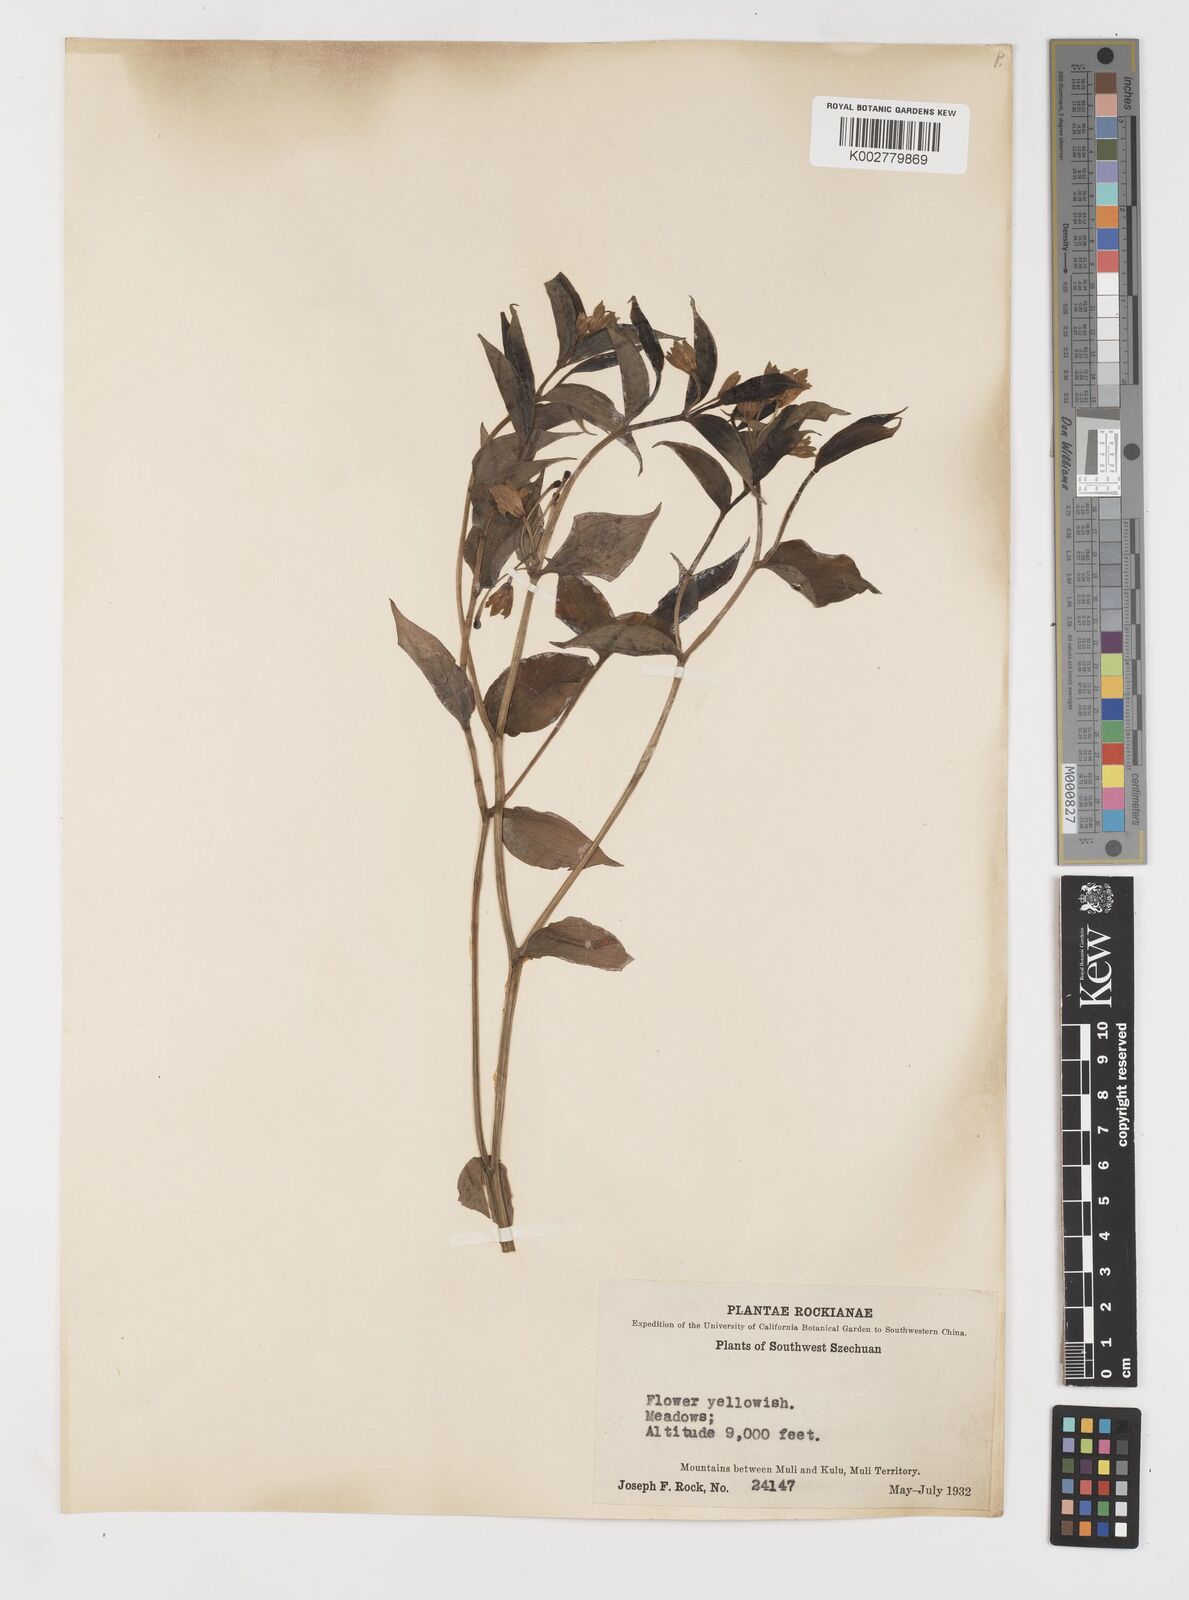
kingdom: Plantae
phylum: Tracheophyta
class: Liliopsida
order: Liliales
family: Colchicaceae
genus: Disporum
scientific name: Disporum
